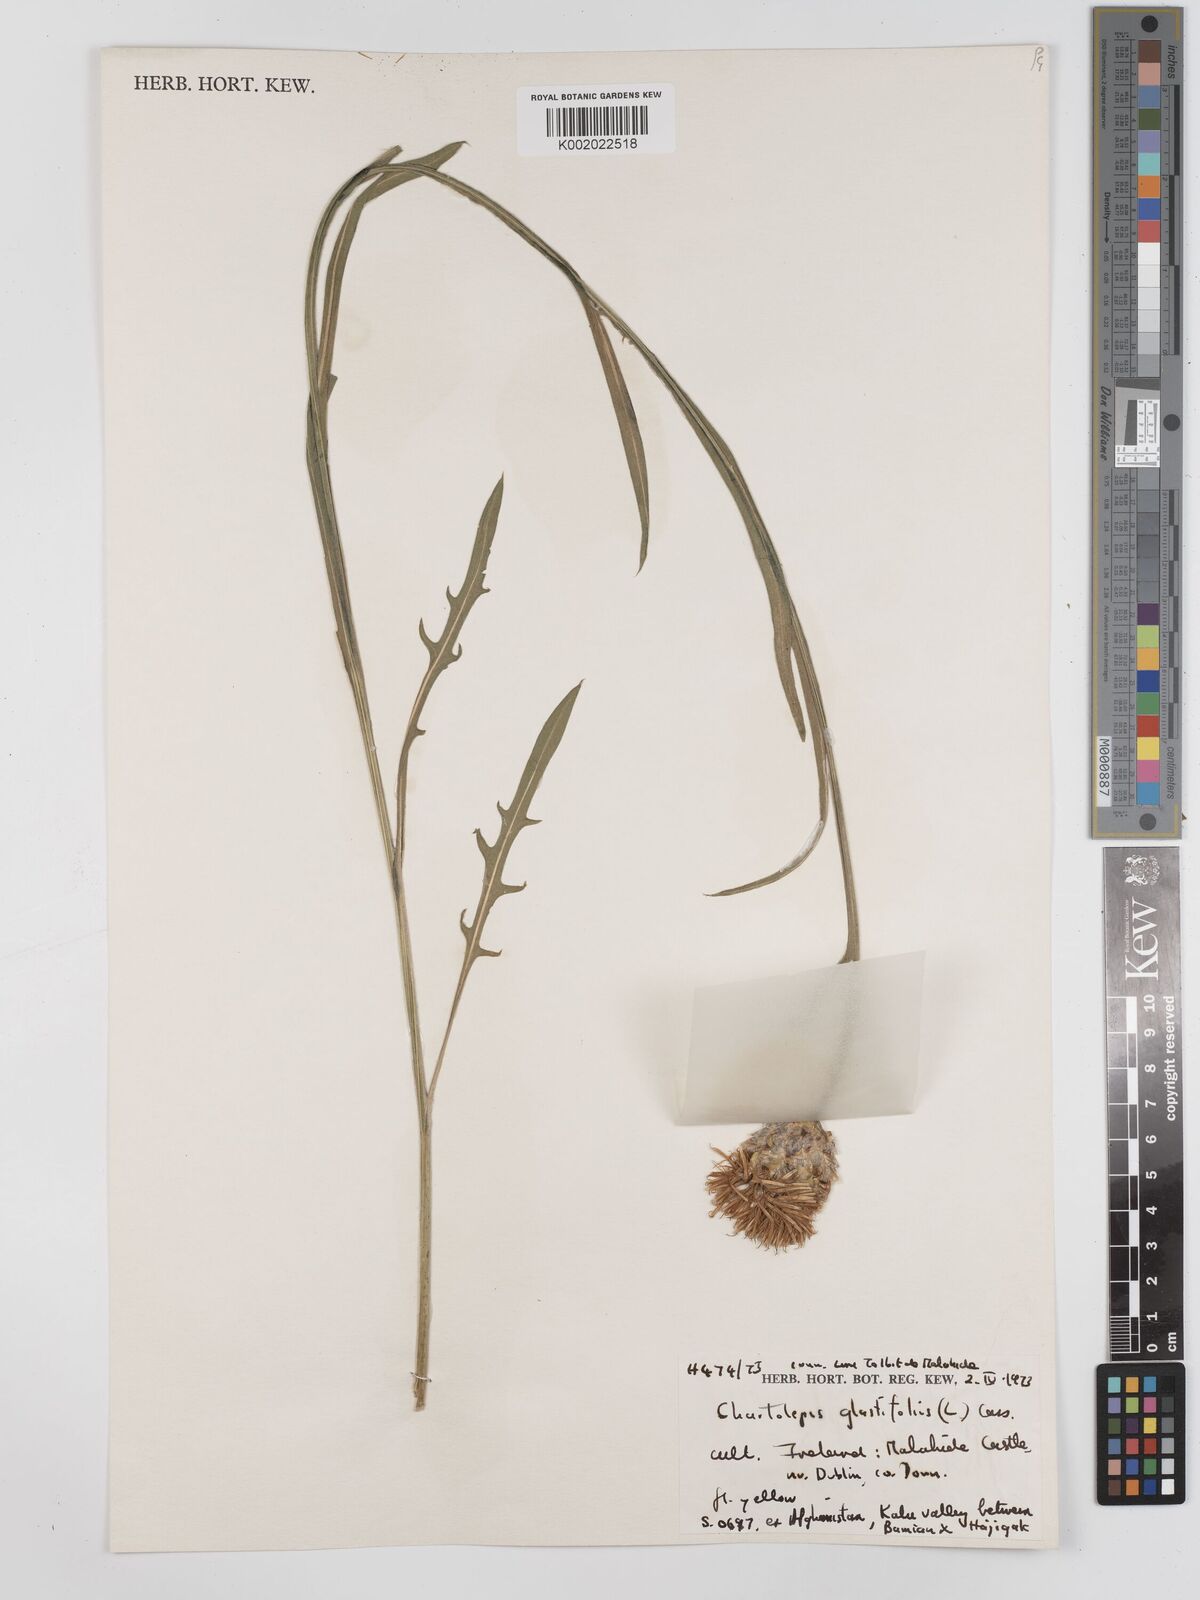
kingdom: Plantae
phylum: Tracheophyta
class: Magnoliopsida
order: Asterales
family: Asteraceae
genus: Centaurea
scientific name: Centaurea
